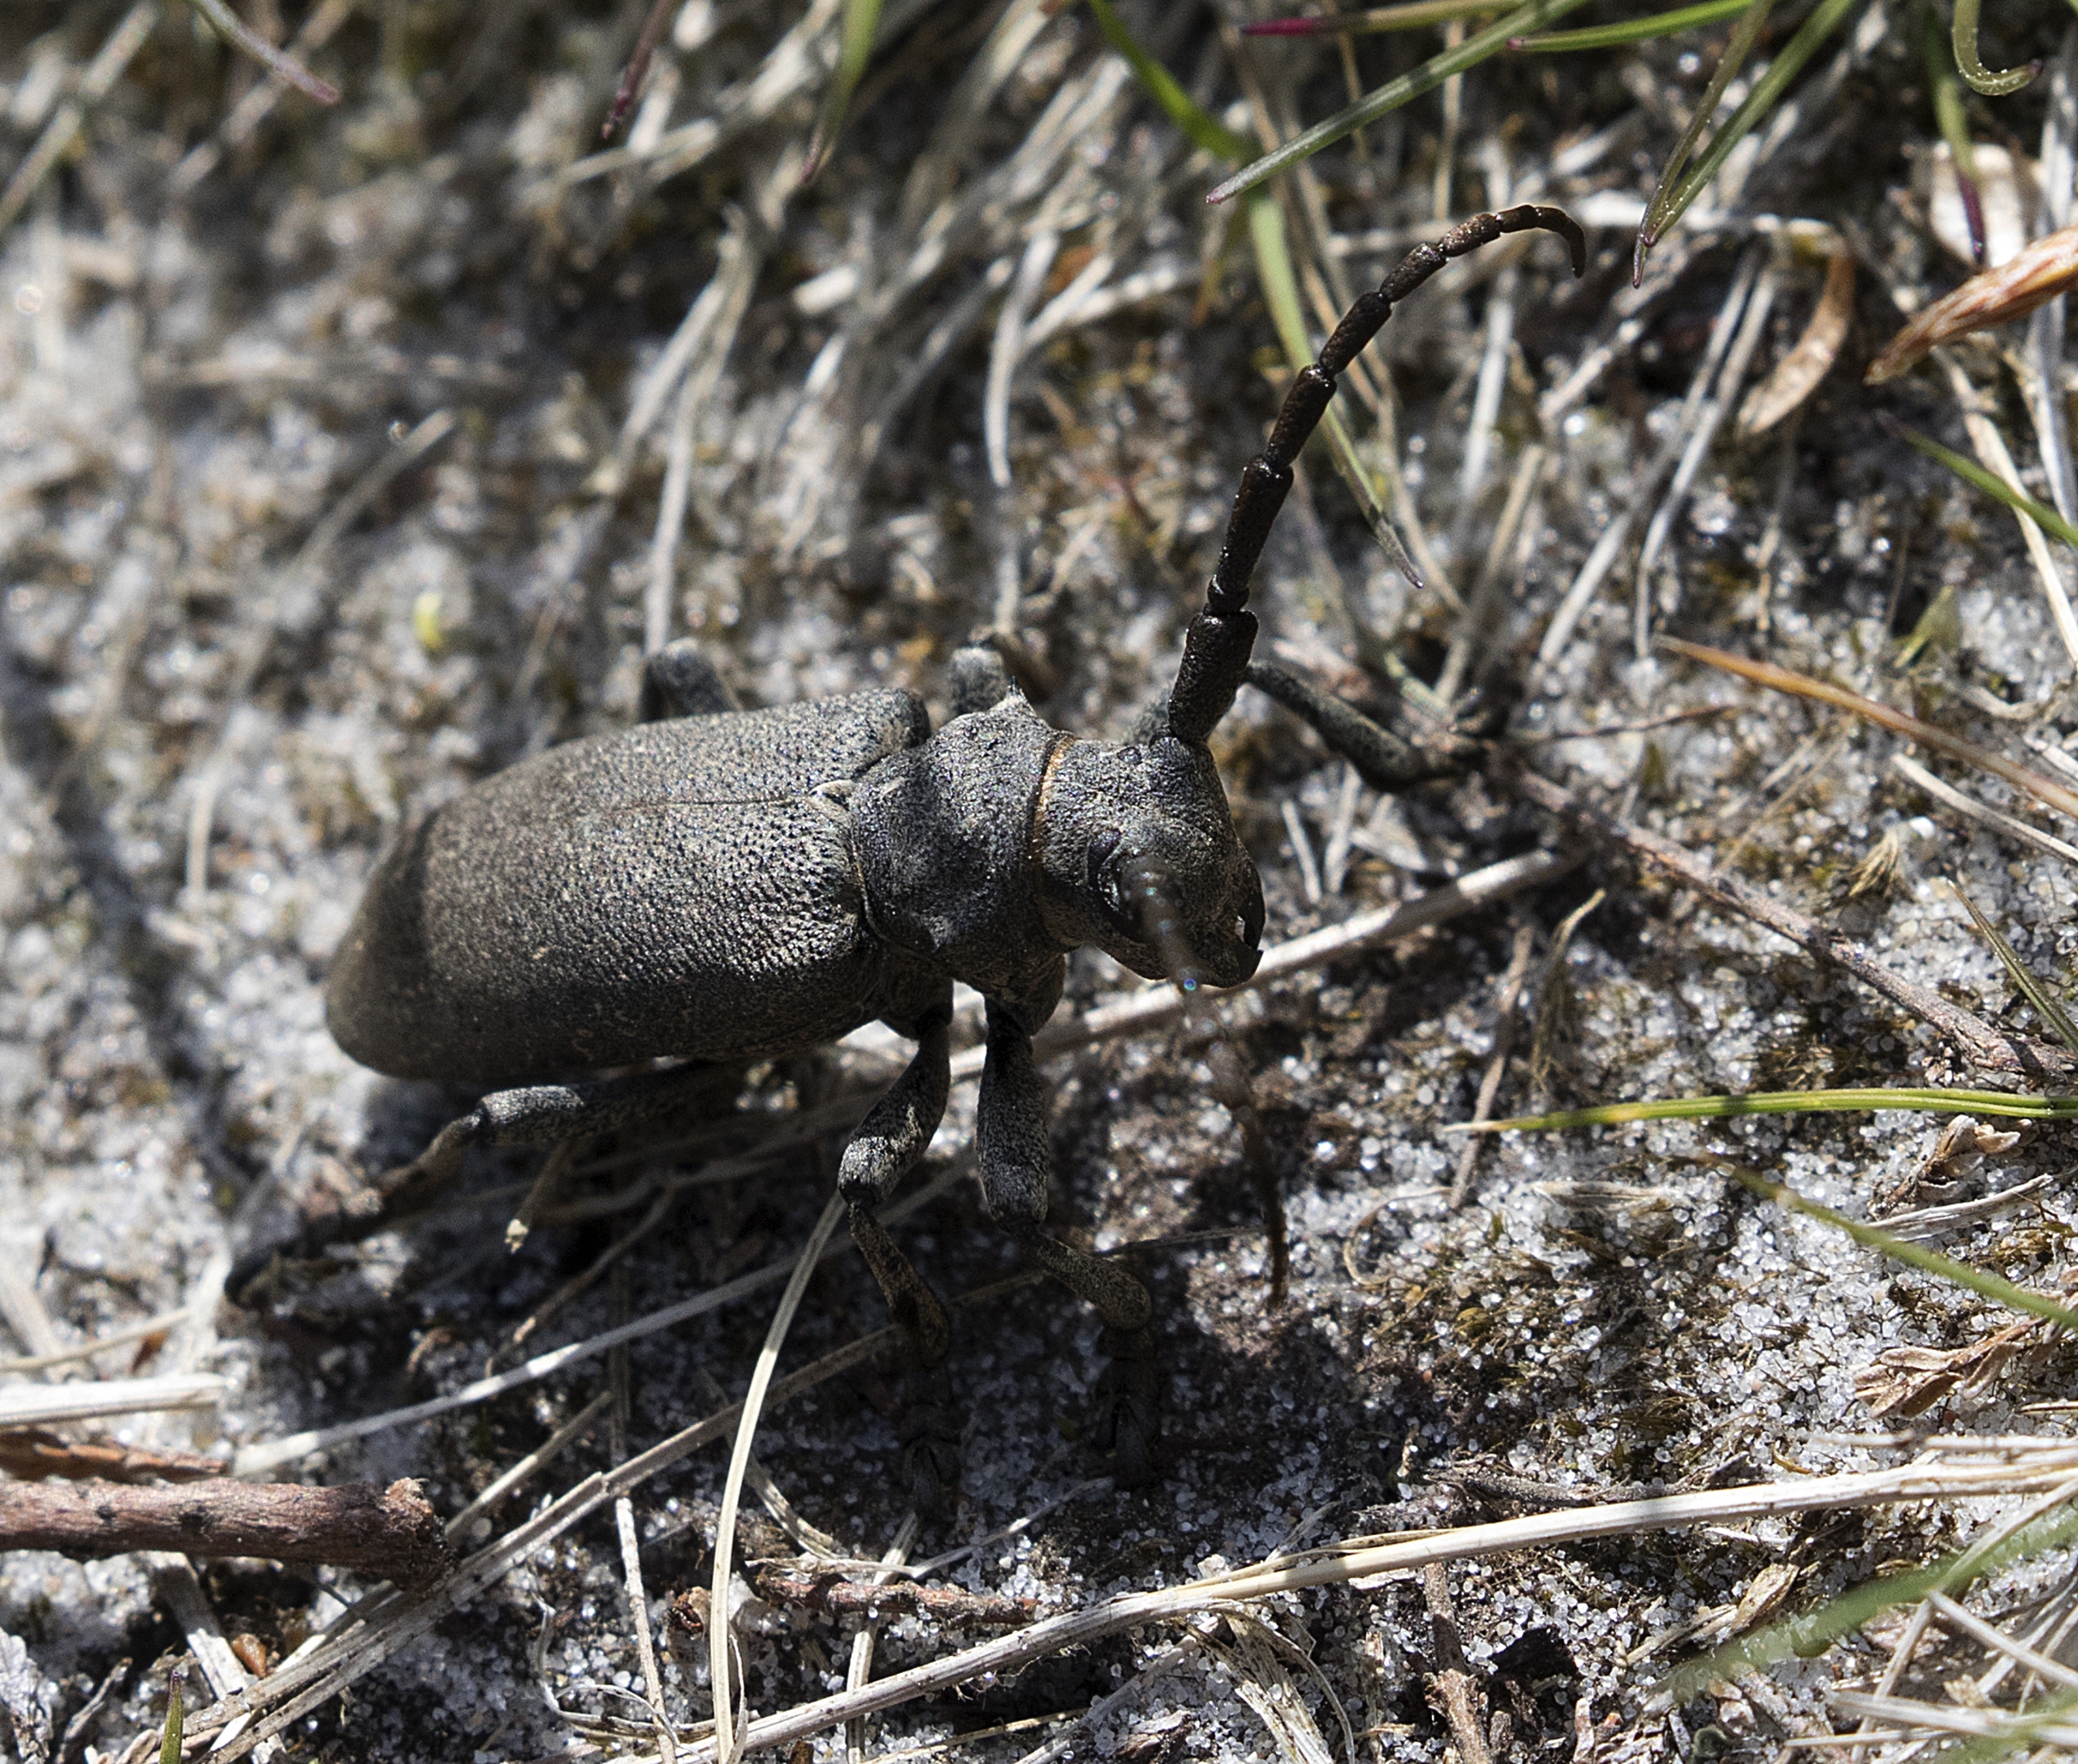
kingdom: Animalia
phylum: Arthropoda
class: Insecta
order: Coleoptera
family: Cerambycidae
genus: Lamia
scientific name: Lamia textor
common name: Væver
